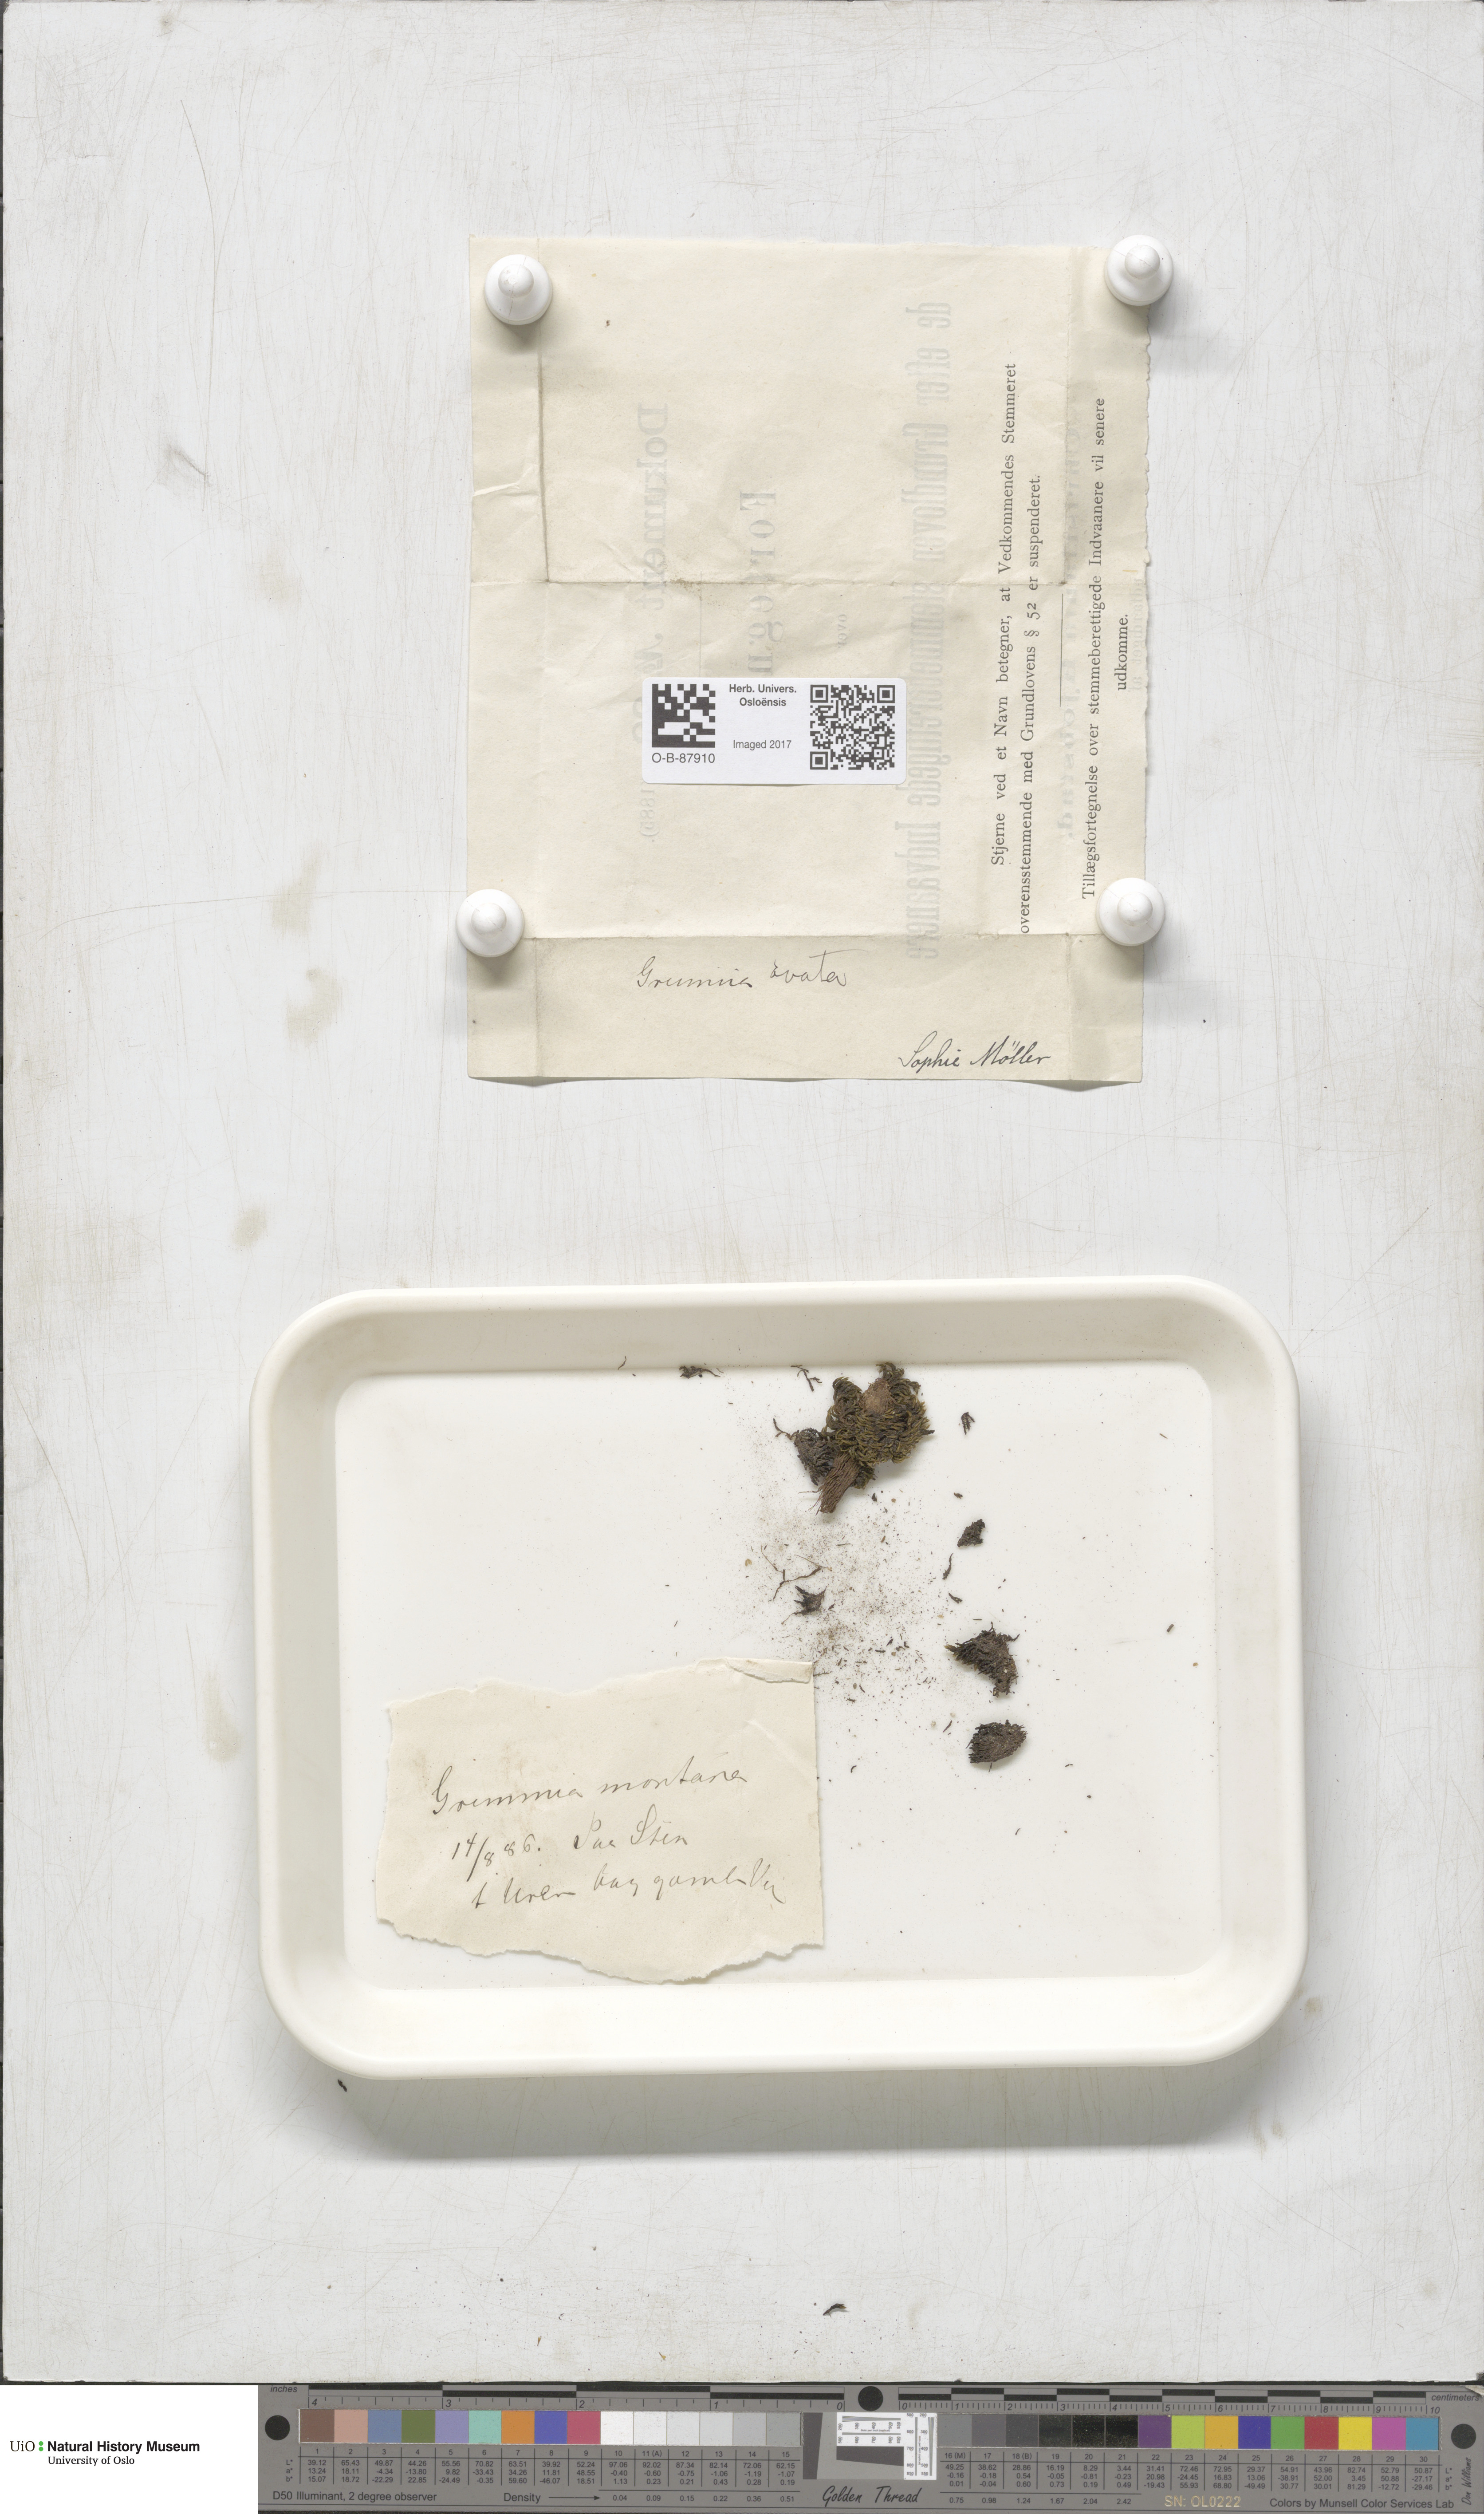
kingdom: Plantae
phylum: Bryophyta
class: Bryopsida
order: Grimmiales
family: Grimmiaceae
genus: Grimmia
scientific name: Grimmia ovalis
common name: Oval grimmia
